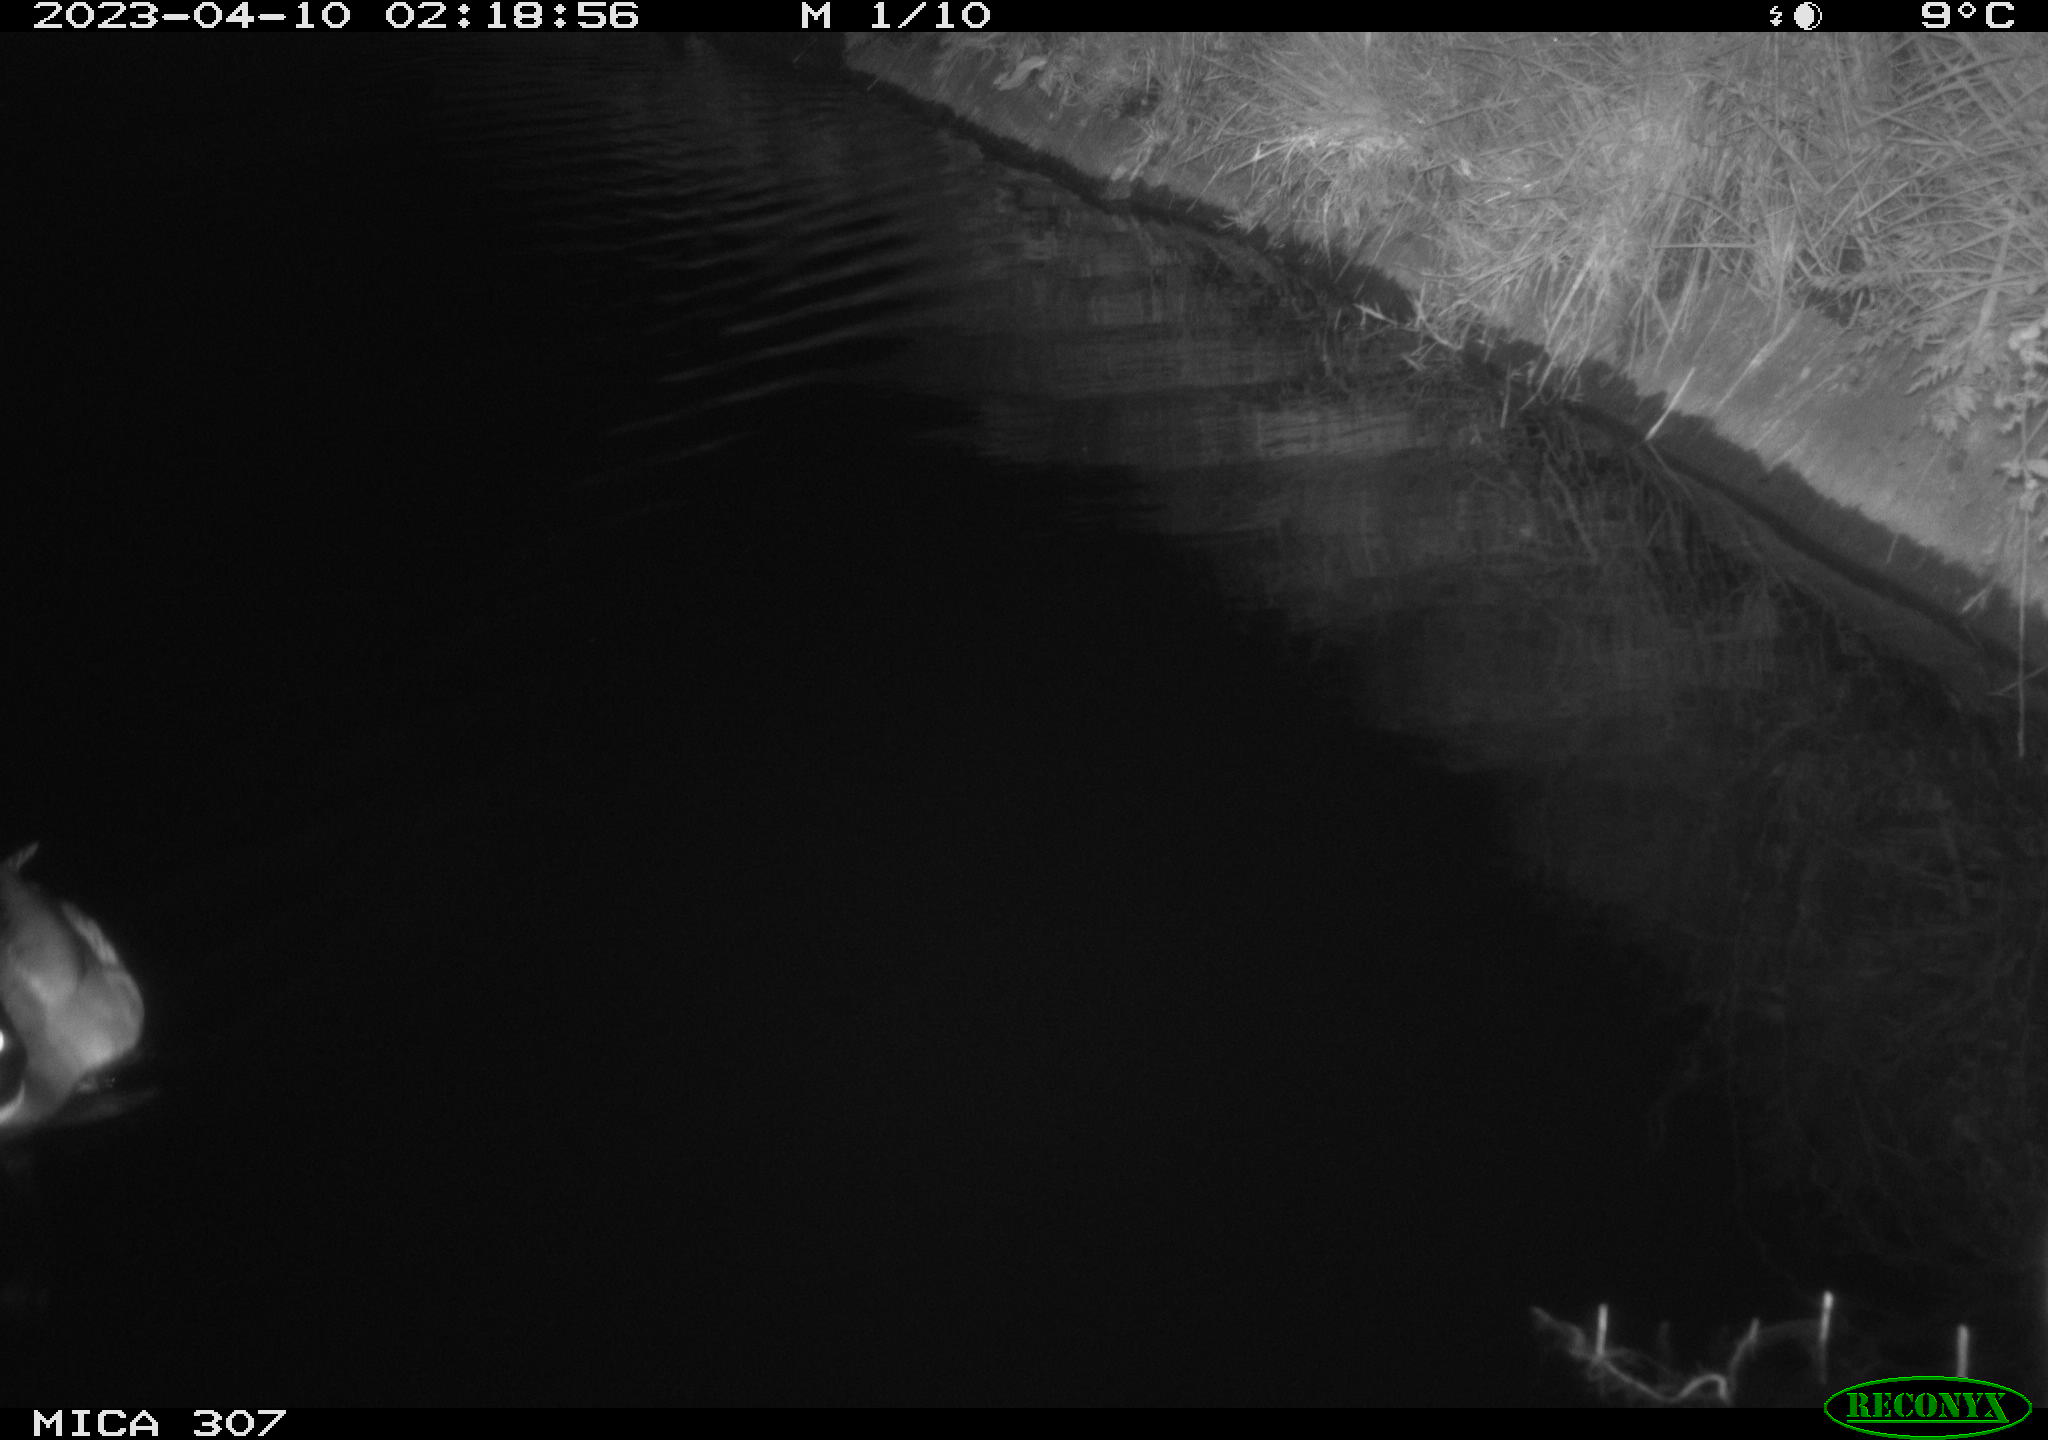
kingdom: Animalia
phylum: Chordata
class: Aves
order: Anseriformes
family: Anatidae
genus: Anas
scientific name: Anas
